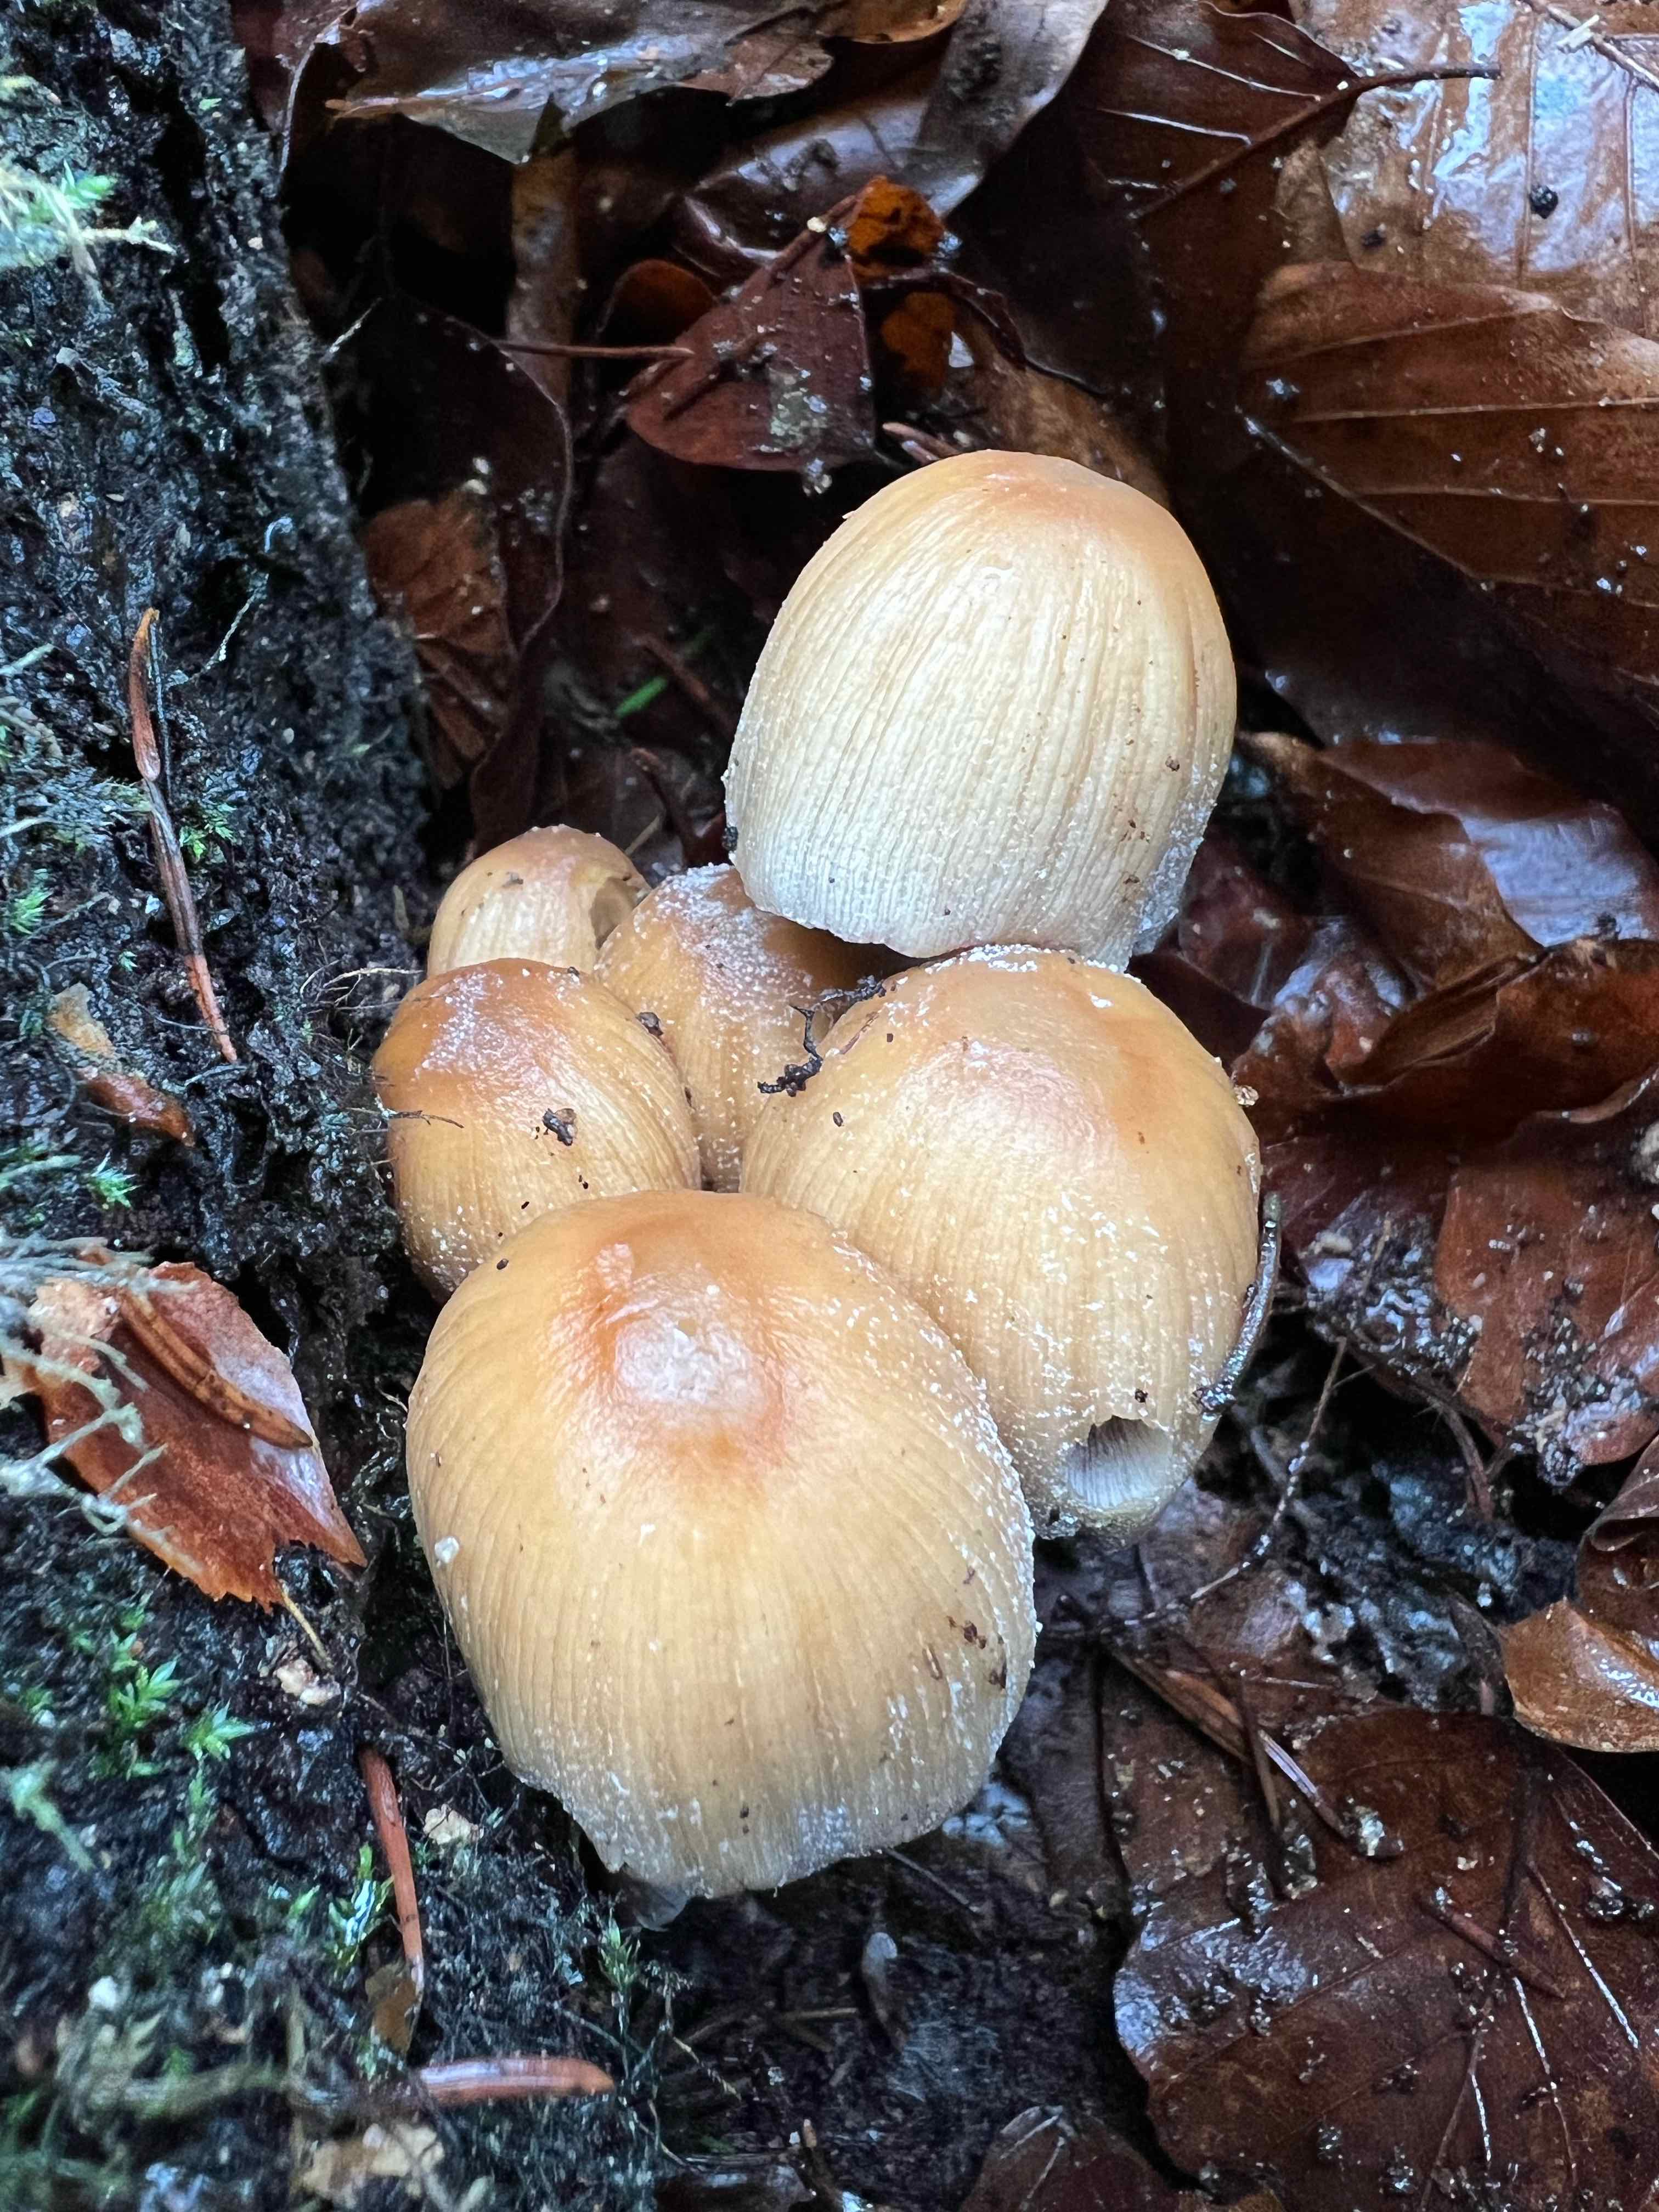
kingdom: Fungi
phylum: Basidiomycota
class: Agaricomycetes
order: Agaricales
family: Psathyrellaceae
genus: Coprinellus
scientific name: Coprinellus micaceus
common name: glimmer-blækhat
